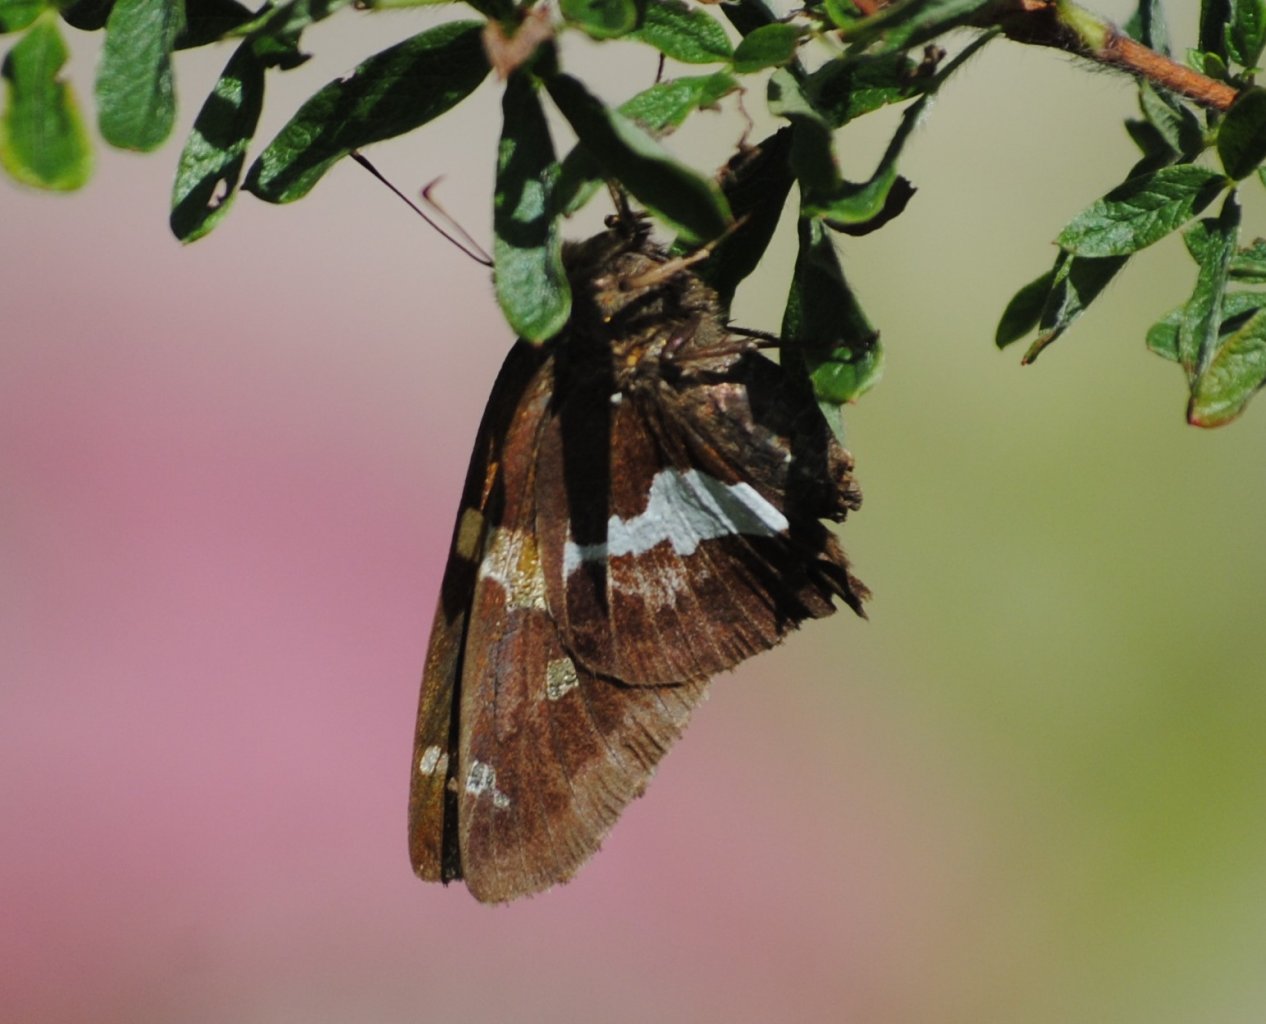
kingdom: Animalia
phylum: Arthropoda
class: Insecta
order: Lepidoptera
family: Hesperiidae
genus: Epargyreus
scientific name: Epargyreus clarus
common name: Silver-spotted Skipper
